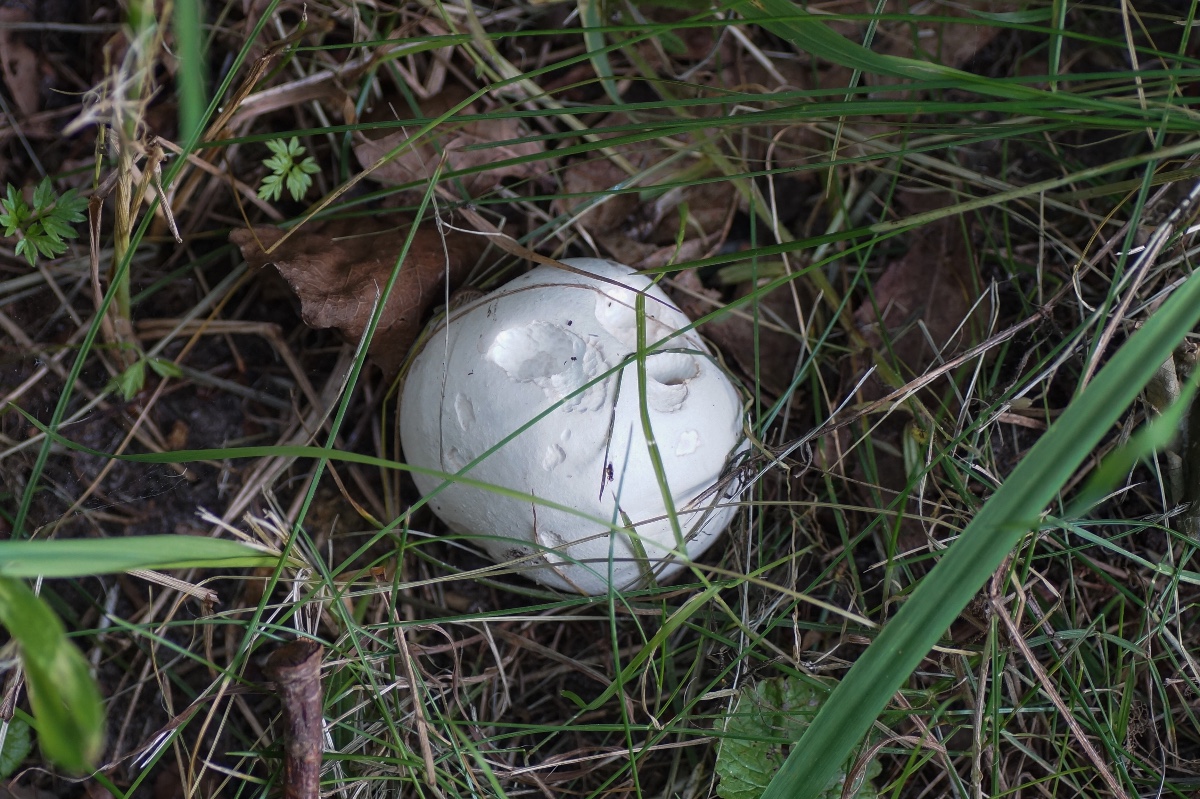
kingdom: Fungi
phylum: Basidiomycota
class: Agaricomycetes
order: Agaricales
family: Lycoperdaceae
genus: Calvatia
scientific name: Calvatia gigantea
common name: kæmpestøvbold
